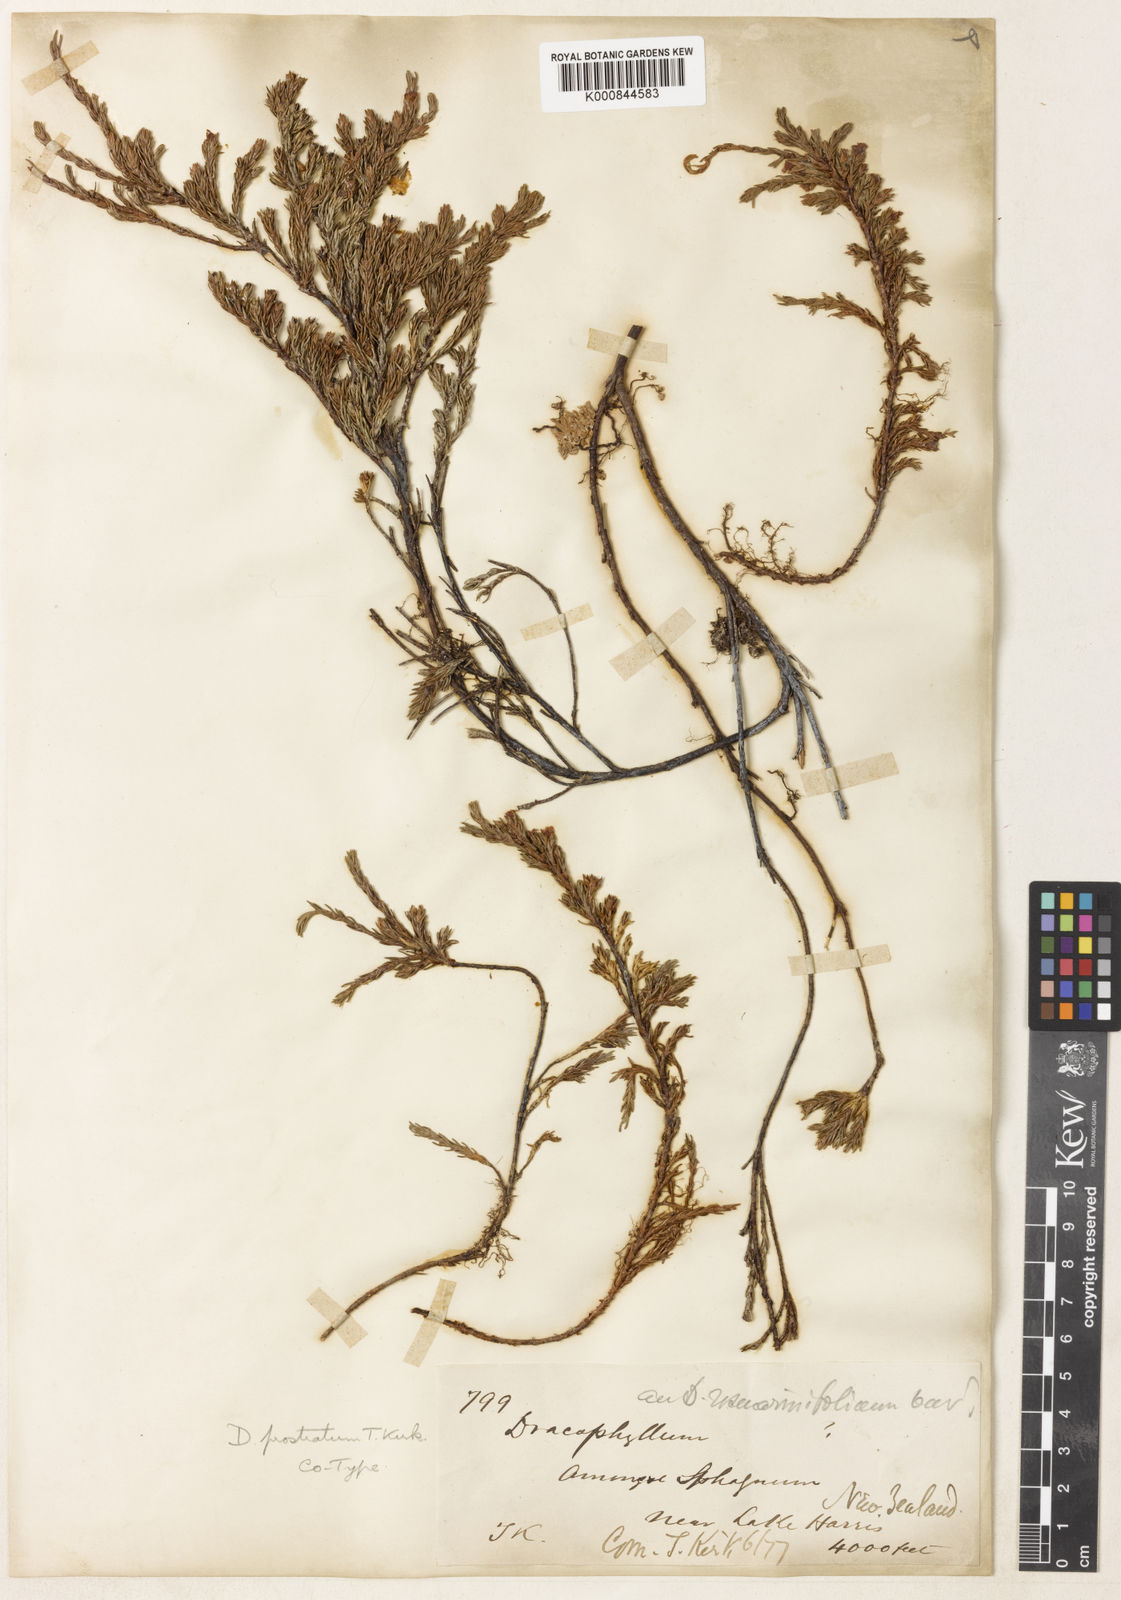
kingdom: Plantae
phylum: Tracheophyta
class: Magnoliopsida
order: Ericales
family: Ericaceae
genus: Dracophyllum
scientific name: Dracophyllum prostratum
